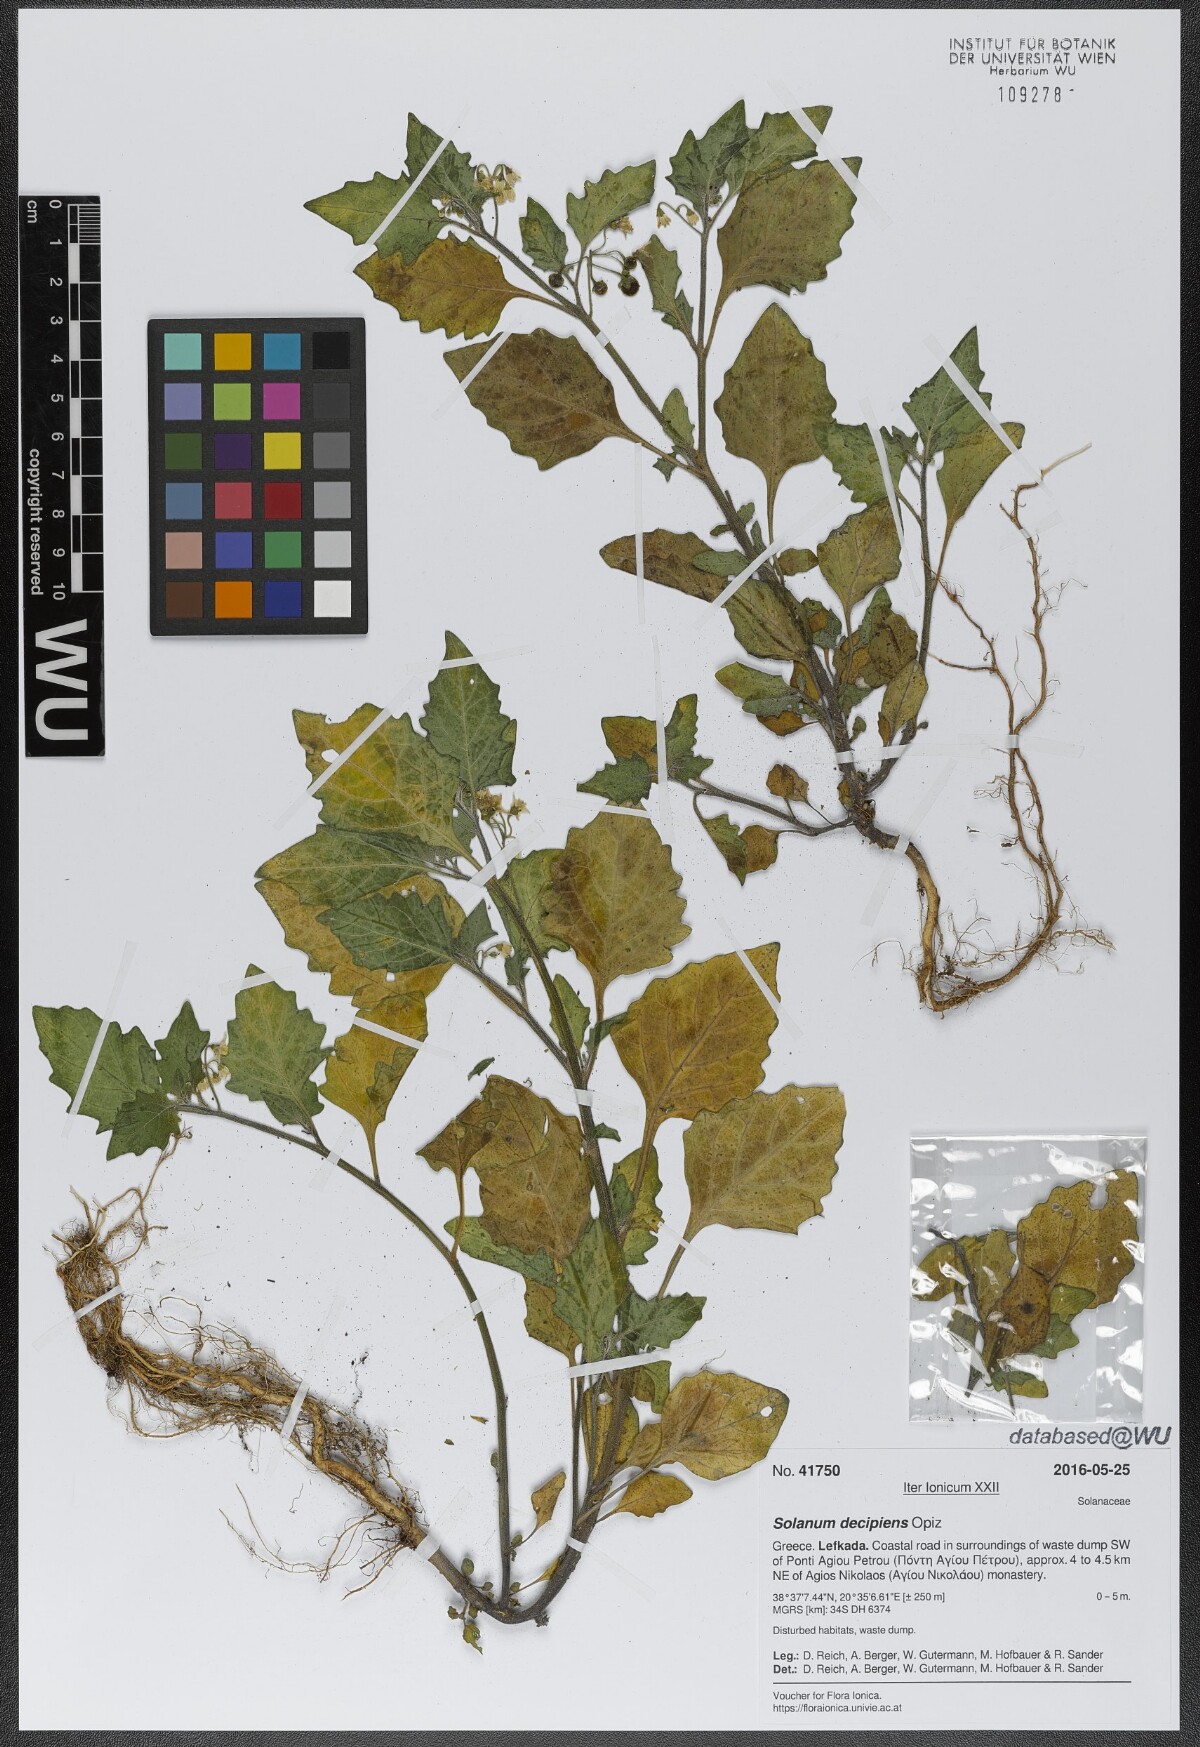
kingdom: Plantae
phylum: Tracheophyta
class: Magnoliopsida
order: Solanales
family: Solanaceae
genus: Solanum
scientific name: Solanum decipiens
